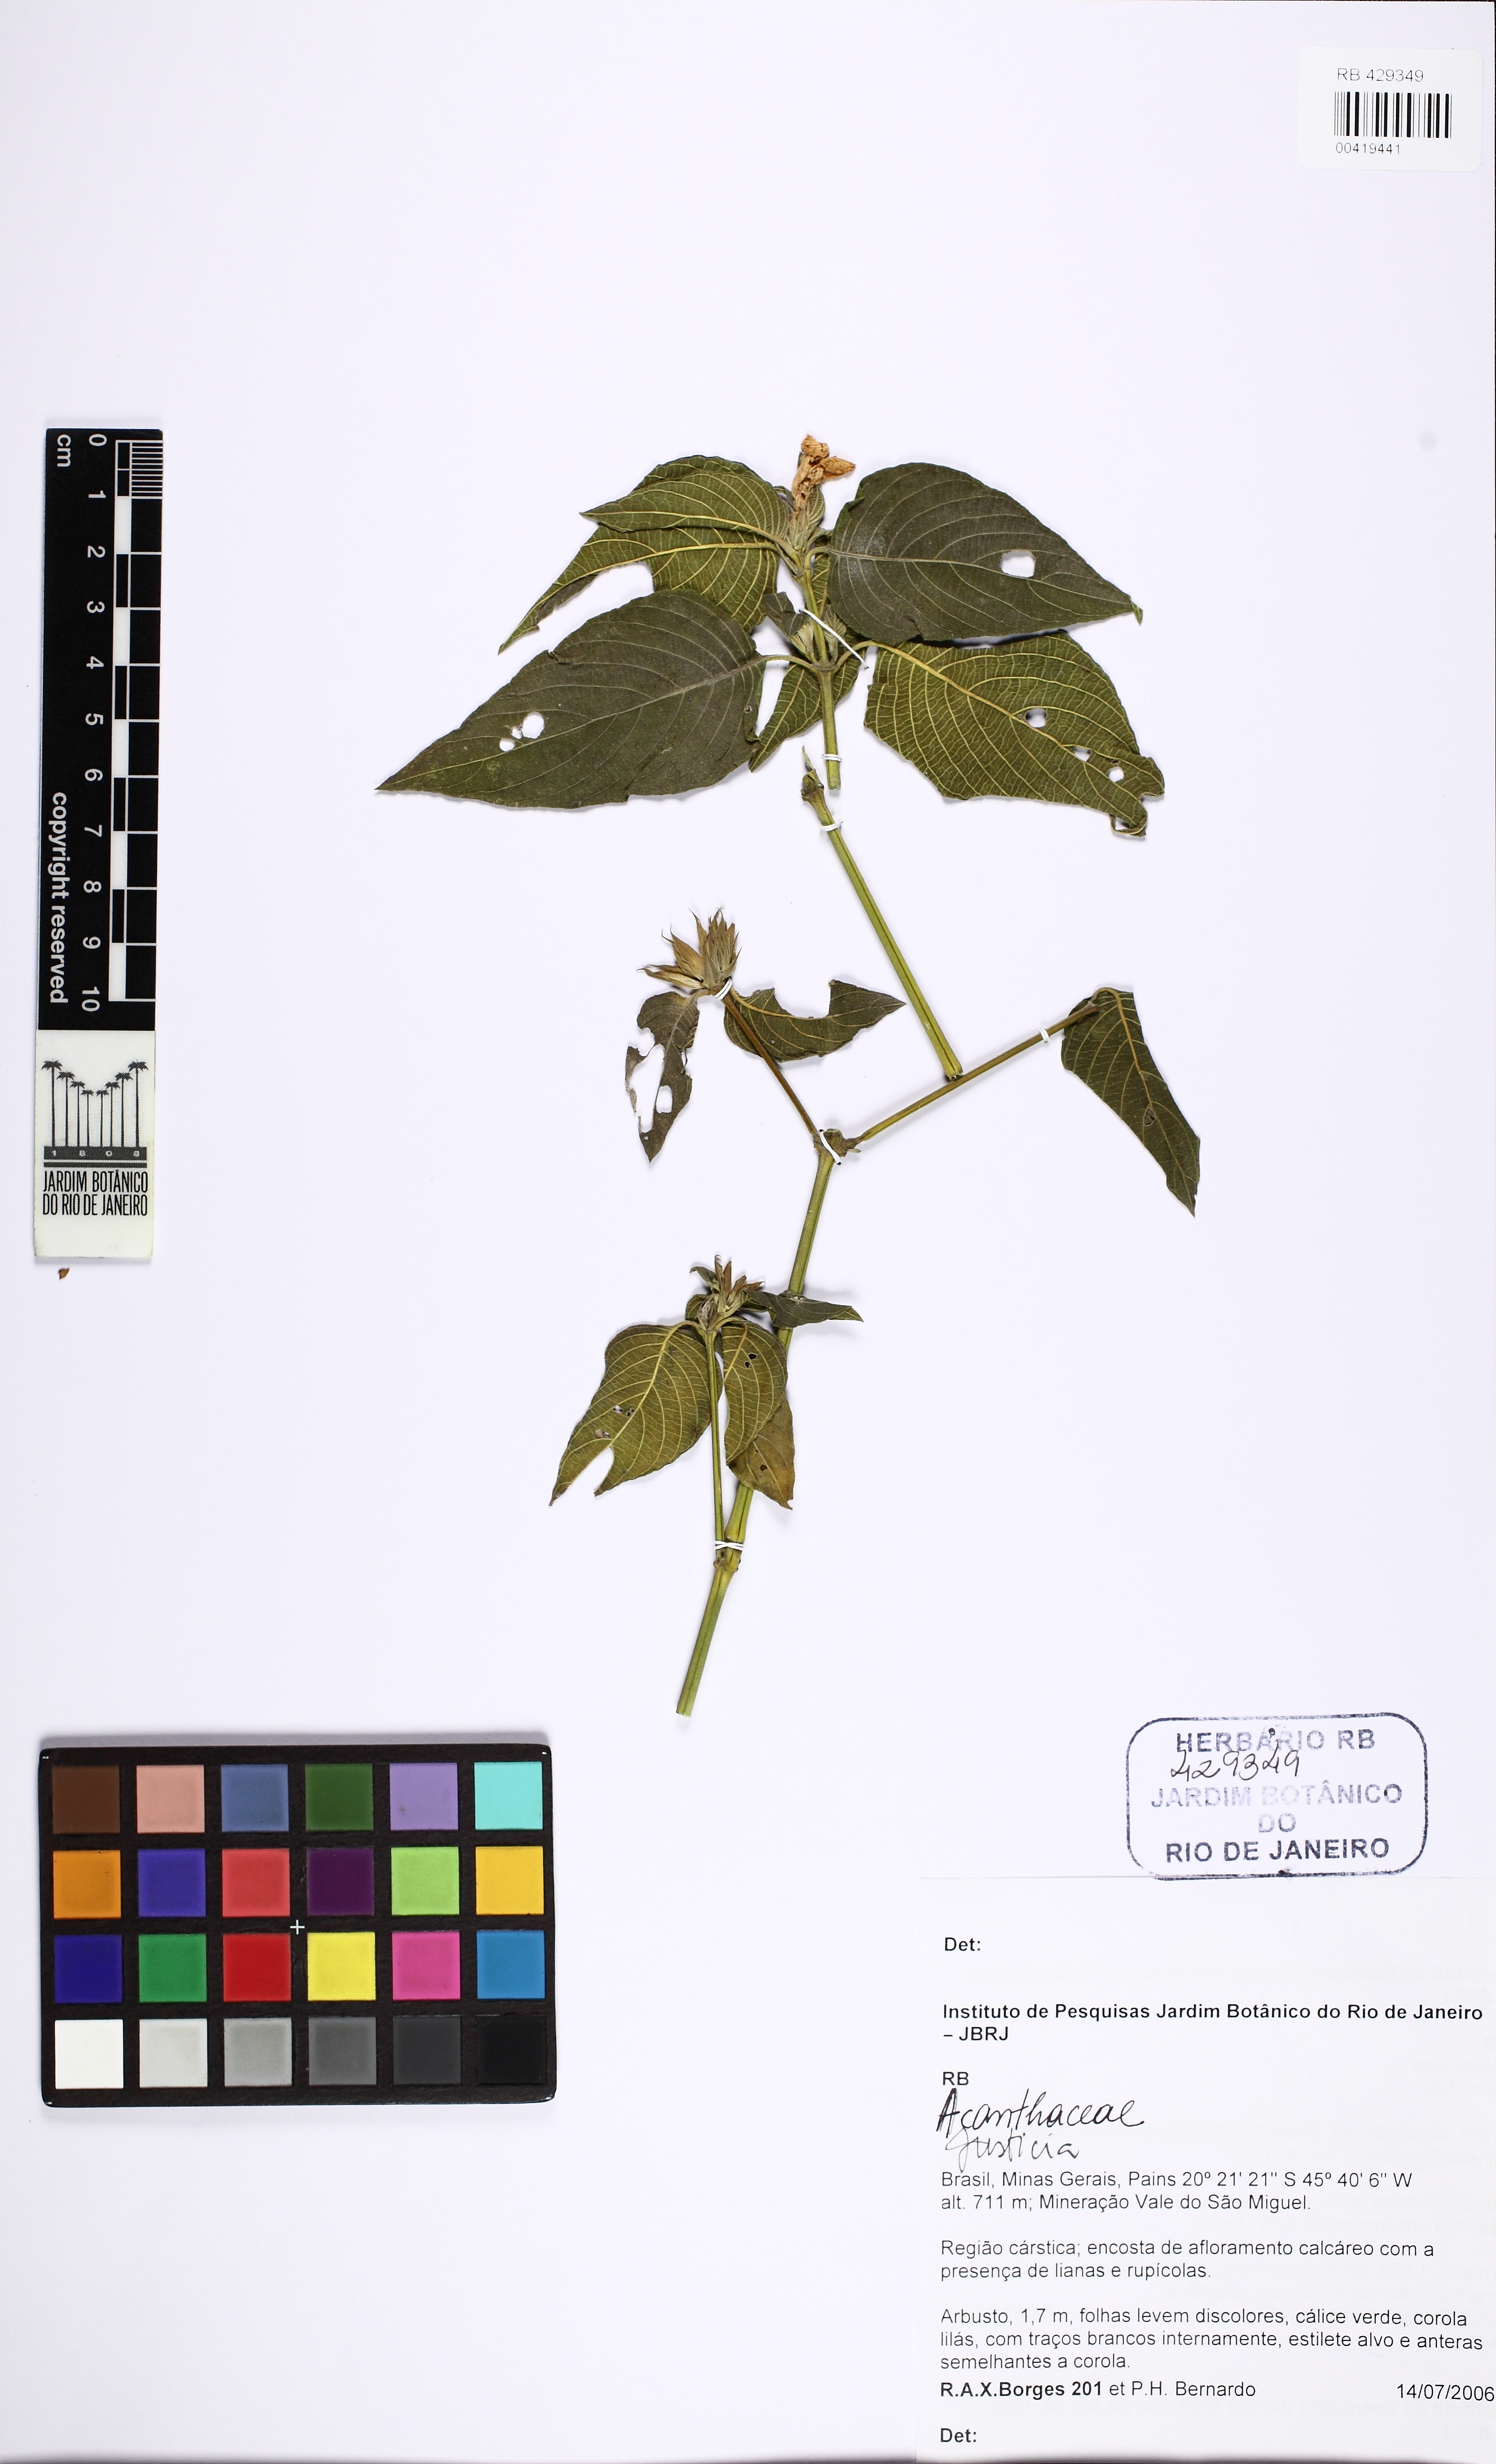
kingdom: Plantae
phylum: Tracheophyta
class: Magnoliopsida
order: Lamiales
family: Acanthaceae
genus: Justicia
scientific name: Justicia
